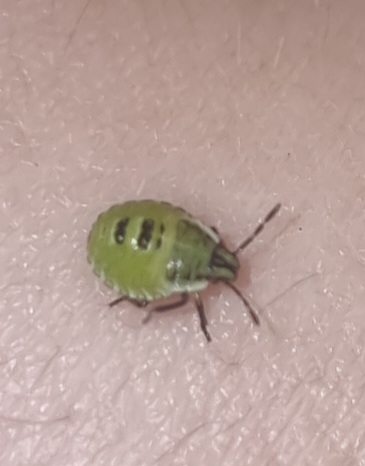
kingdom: Animalia
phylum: Arthropoda
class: Insecta
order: Hemiptera
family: Pentatomidae
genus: Palomena
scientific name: Palomena prasina
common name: Grøn bredtæge
